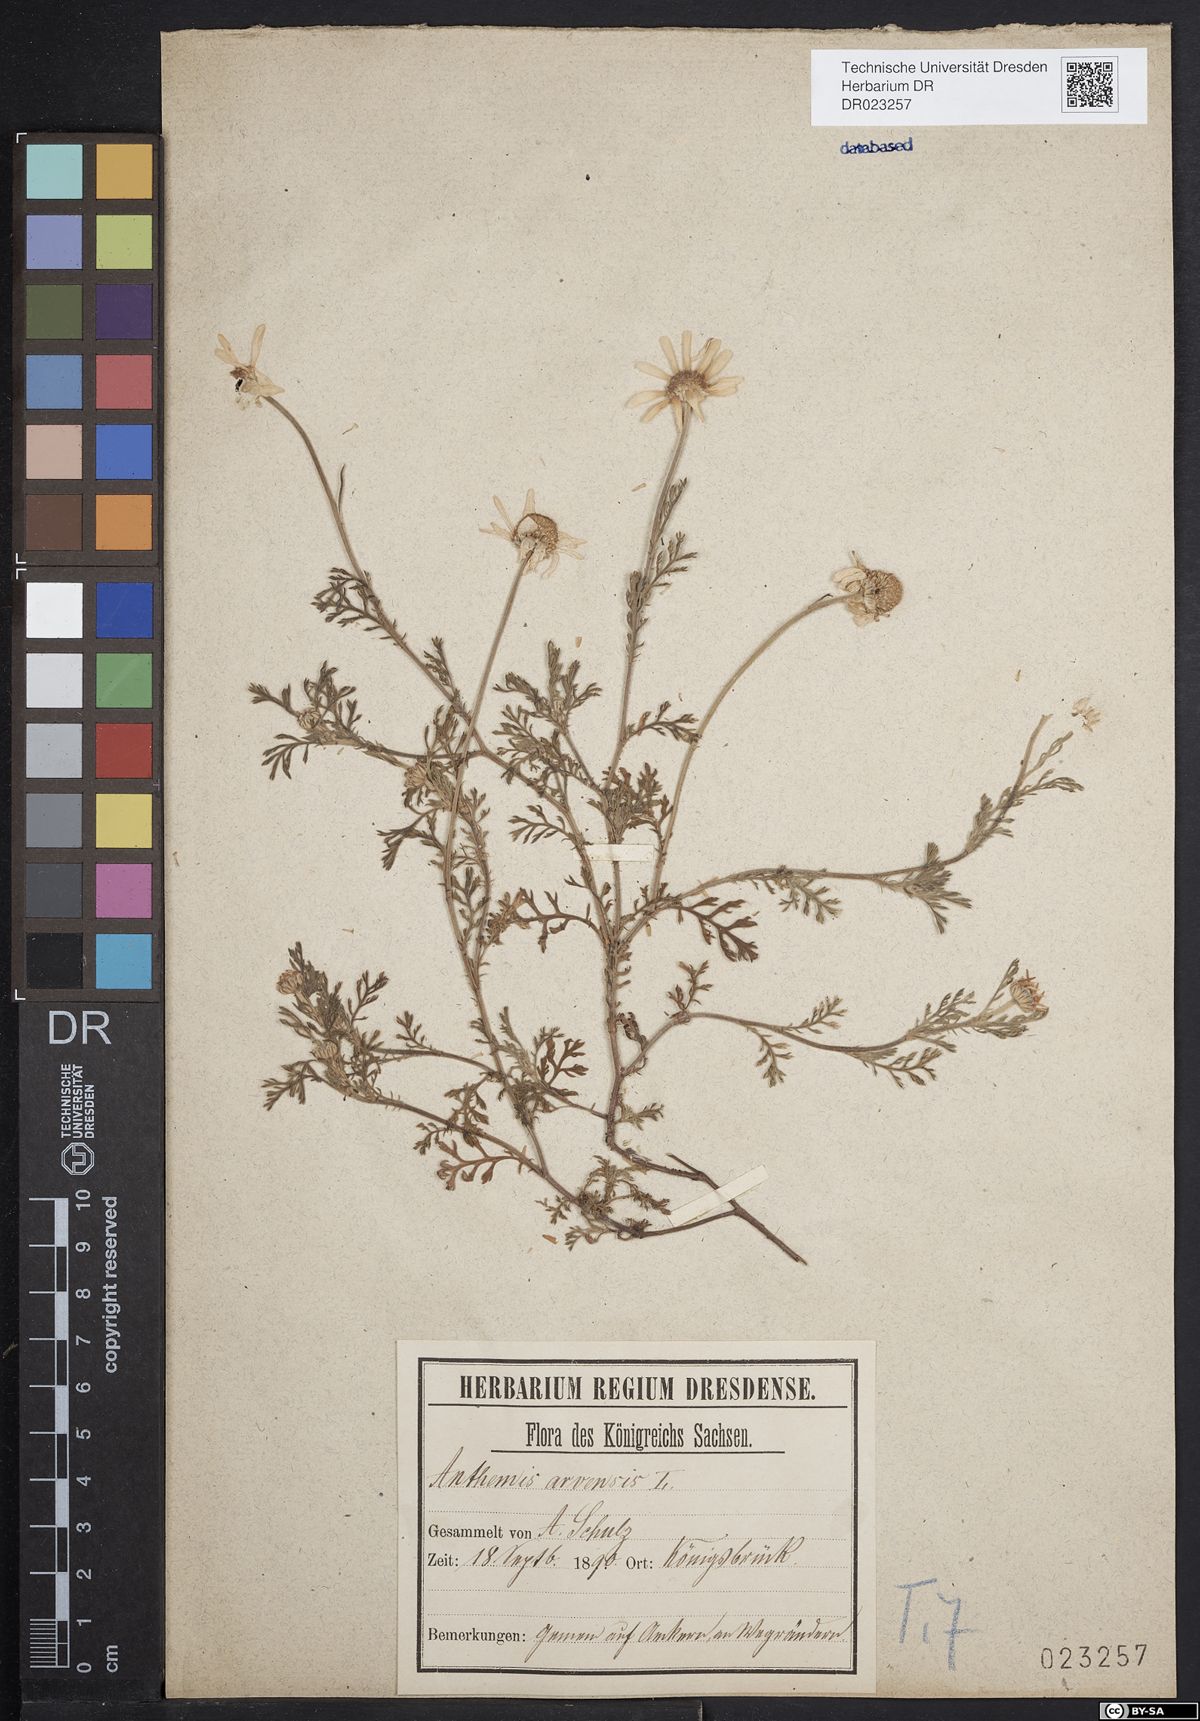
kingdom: Plantae
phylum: Tracheophyta
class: Magnoliopsida
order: Asterales
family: Asteraceae
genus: Anthemis
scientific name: Anthemis arvensis
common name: Corn chamomile
